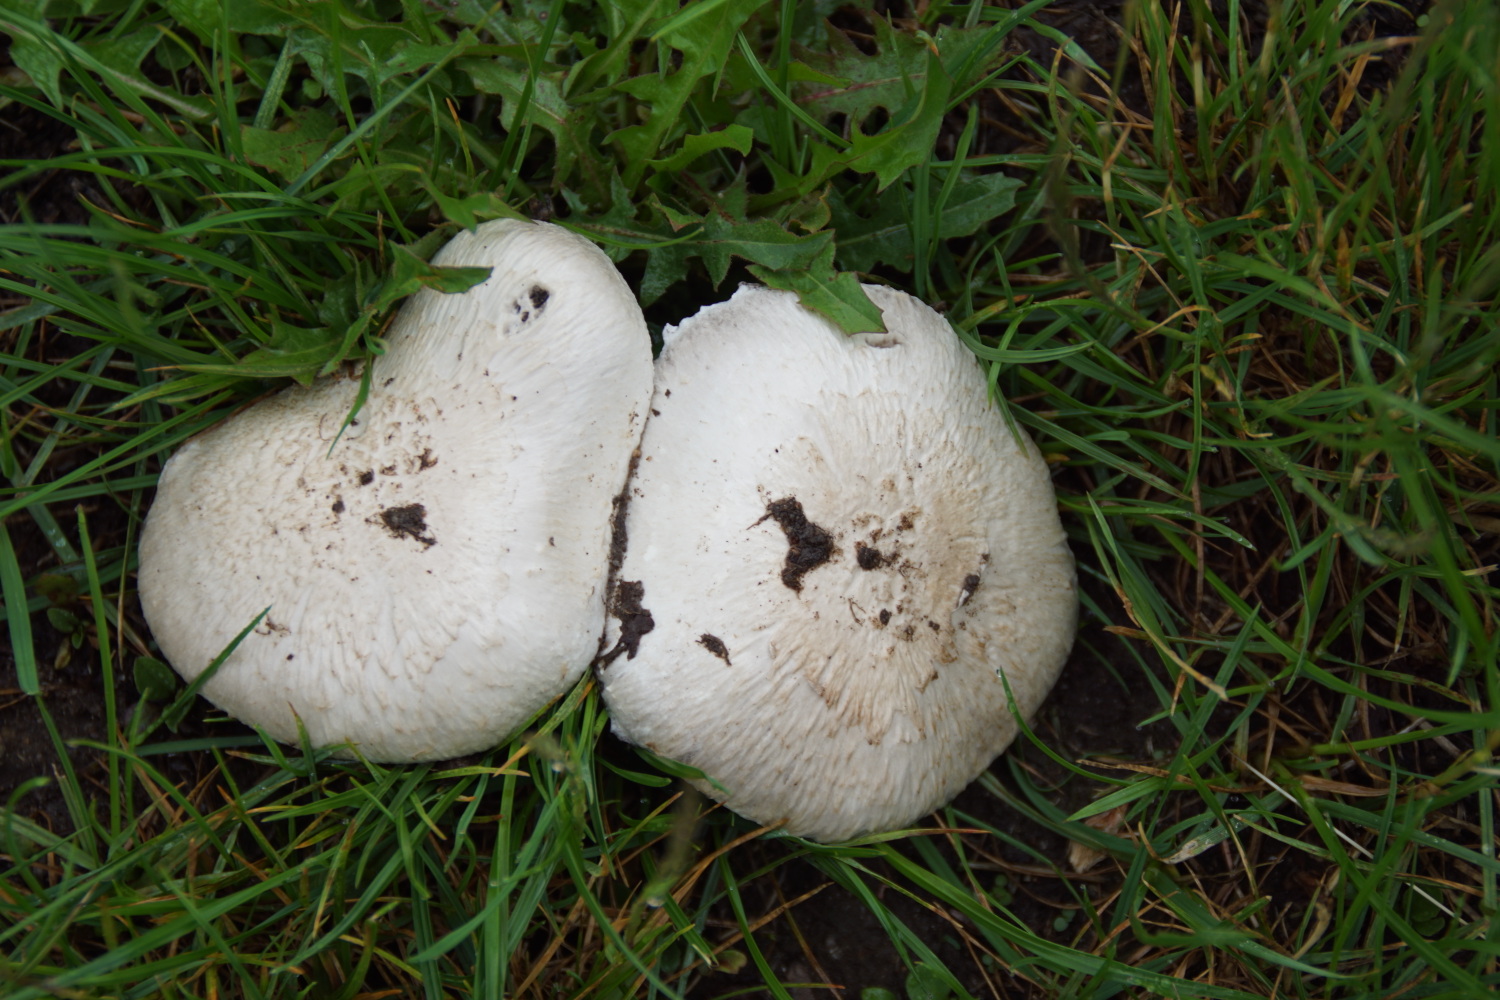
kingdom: Fungi
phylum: Basidiomycota
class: Agaricomycetes
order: Agaricales
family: Agaricaceae
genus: Agaricus
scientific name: Agaricus
